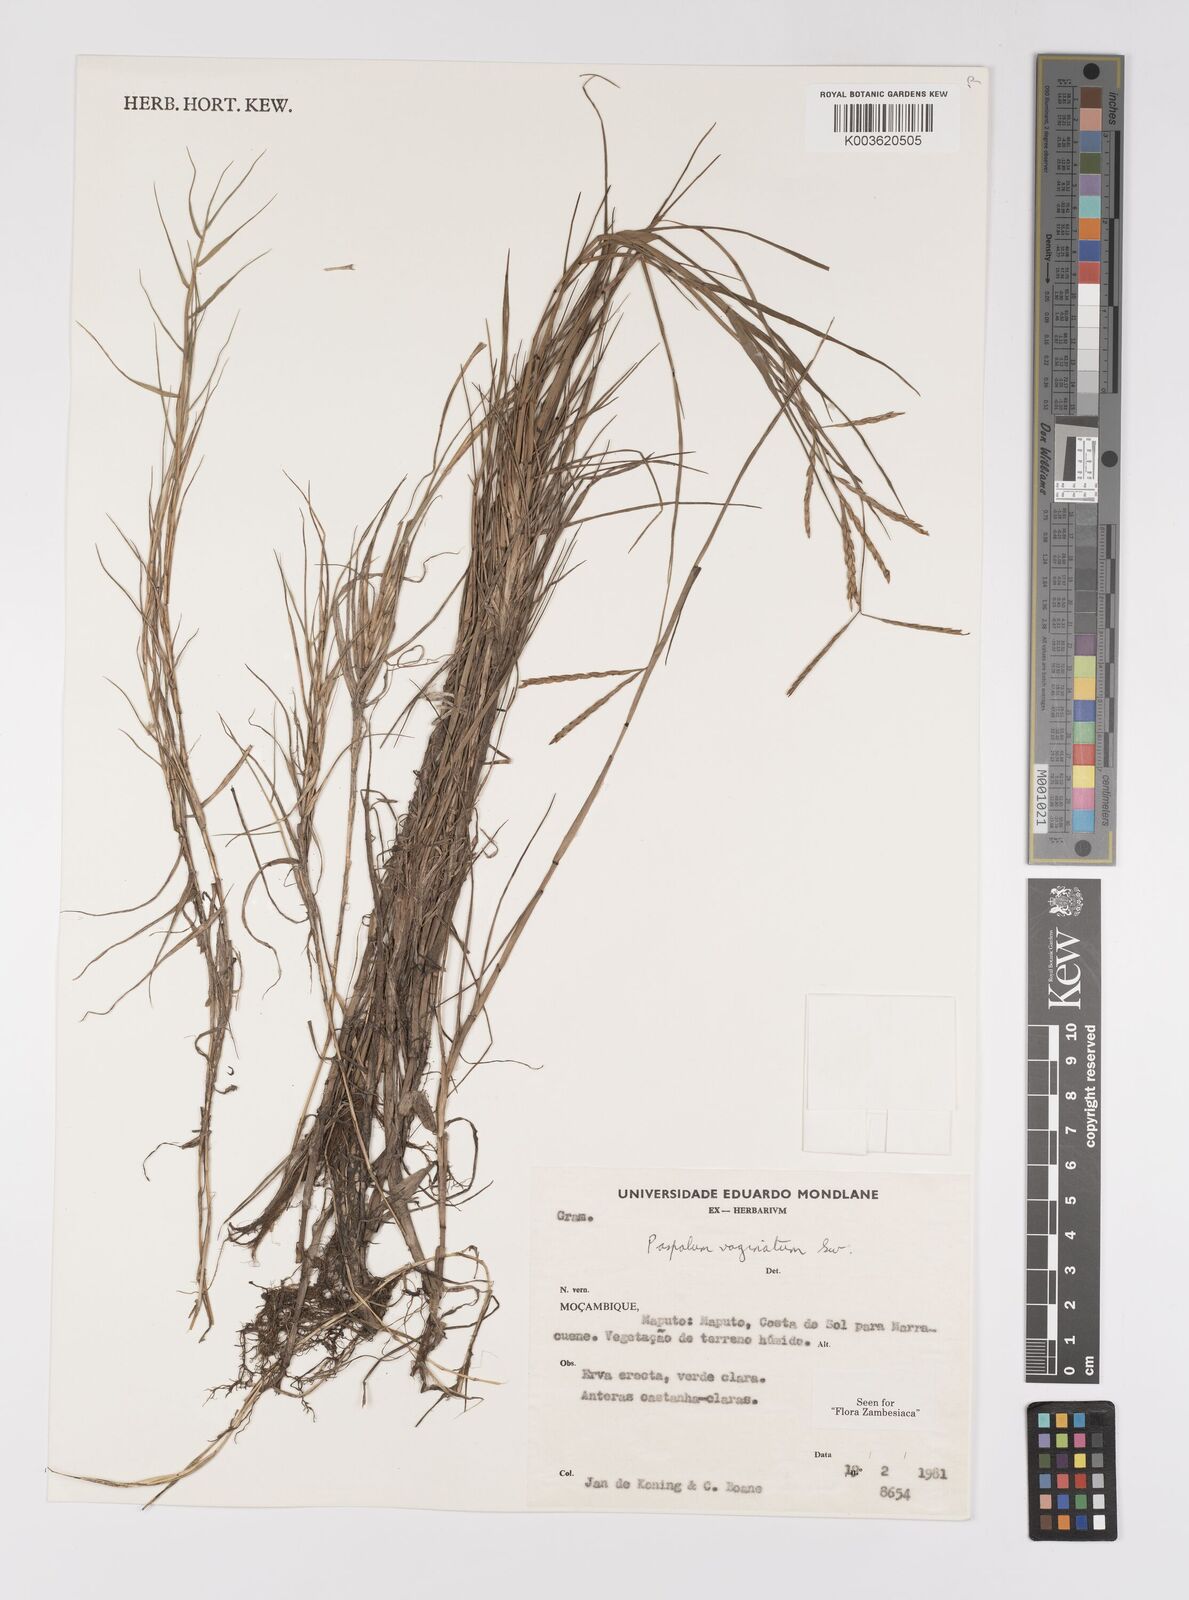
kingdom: Plantae
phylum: Tracheophyta
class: Liliopsida
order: Poales
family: Poaceae
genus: Paspalum
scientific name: Paspalum vaginatum
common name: Seashore paspalum
